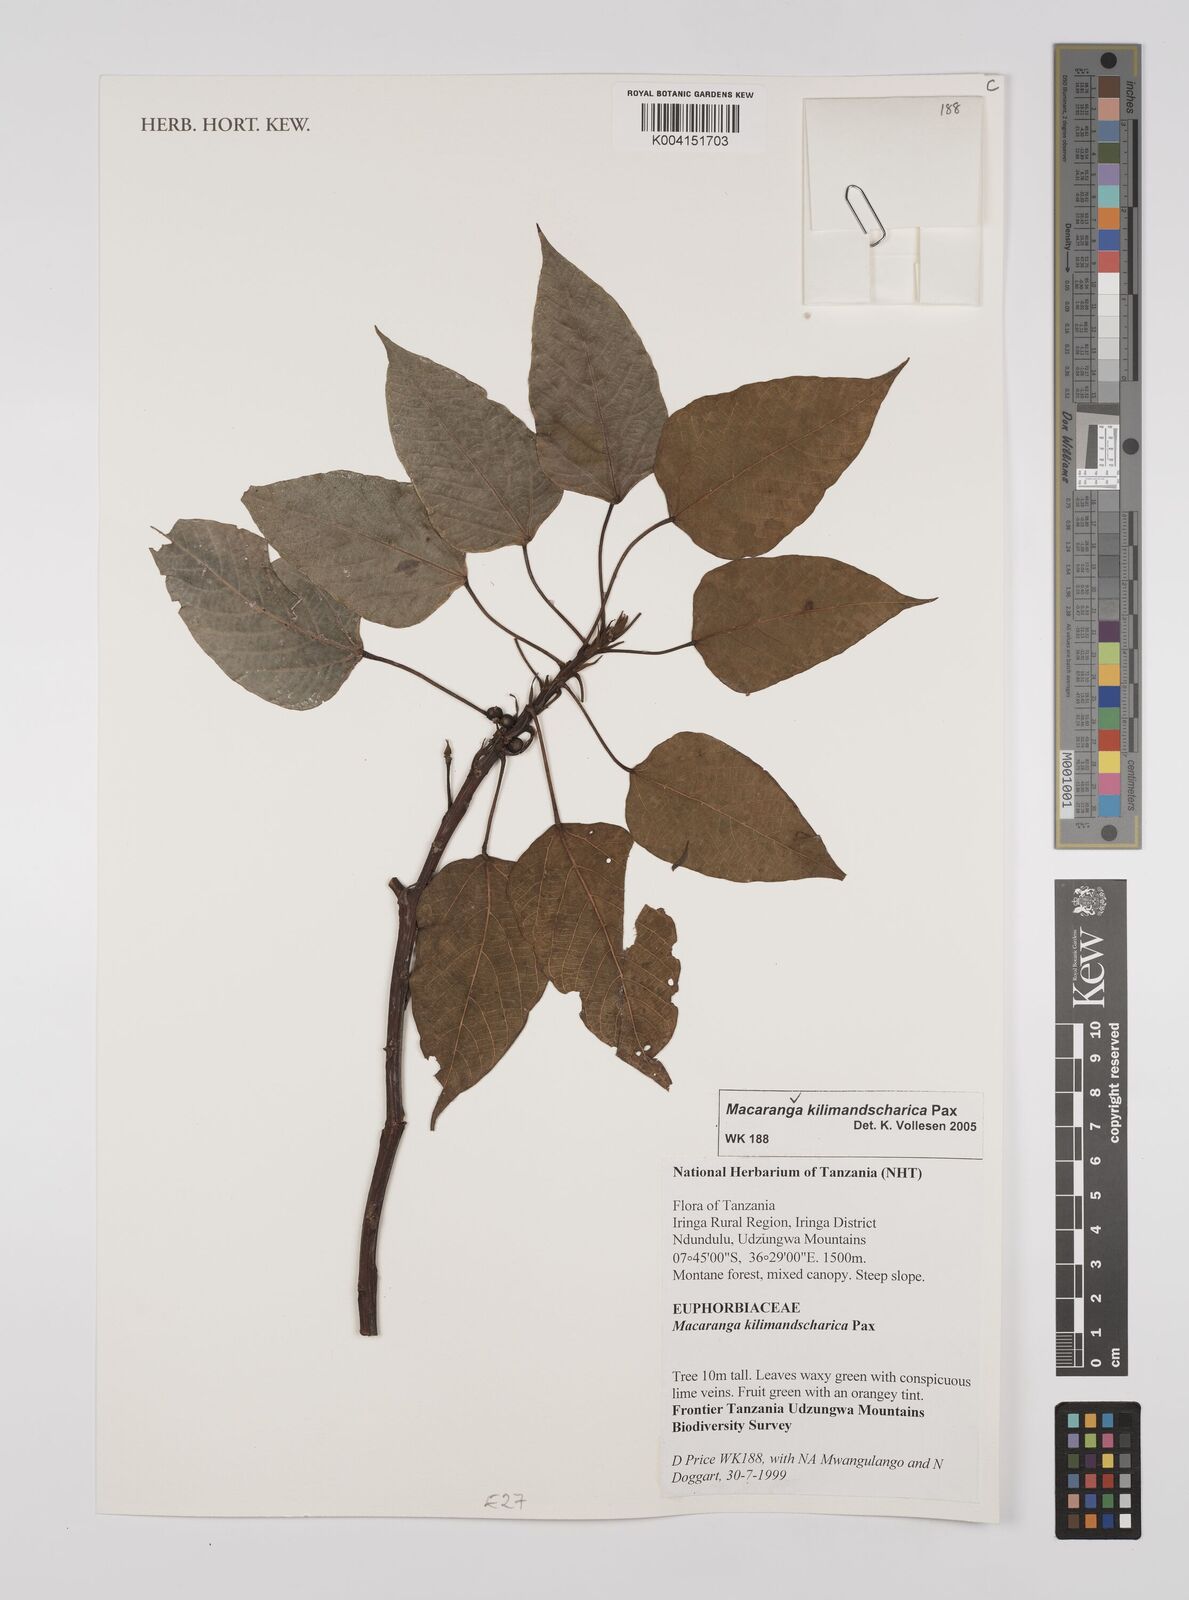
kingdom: Plantae
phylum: Tracheophyta
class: Magnoliopsida
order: Malpighiales
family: Euphorbiaceae
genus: Macaranga
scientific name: Macaranga kilimandscharica
